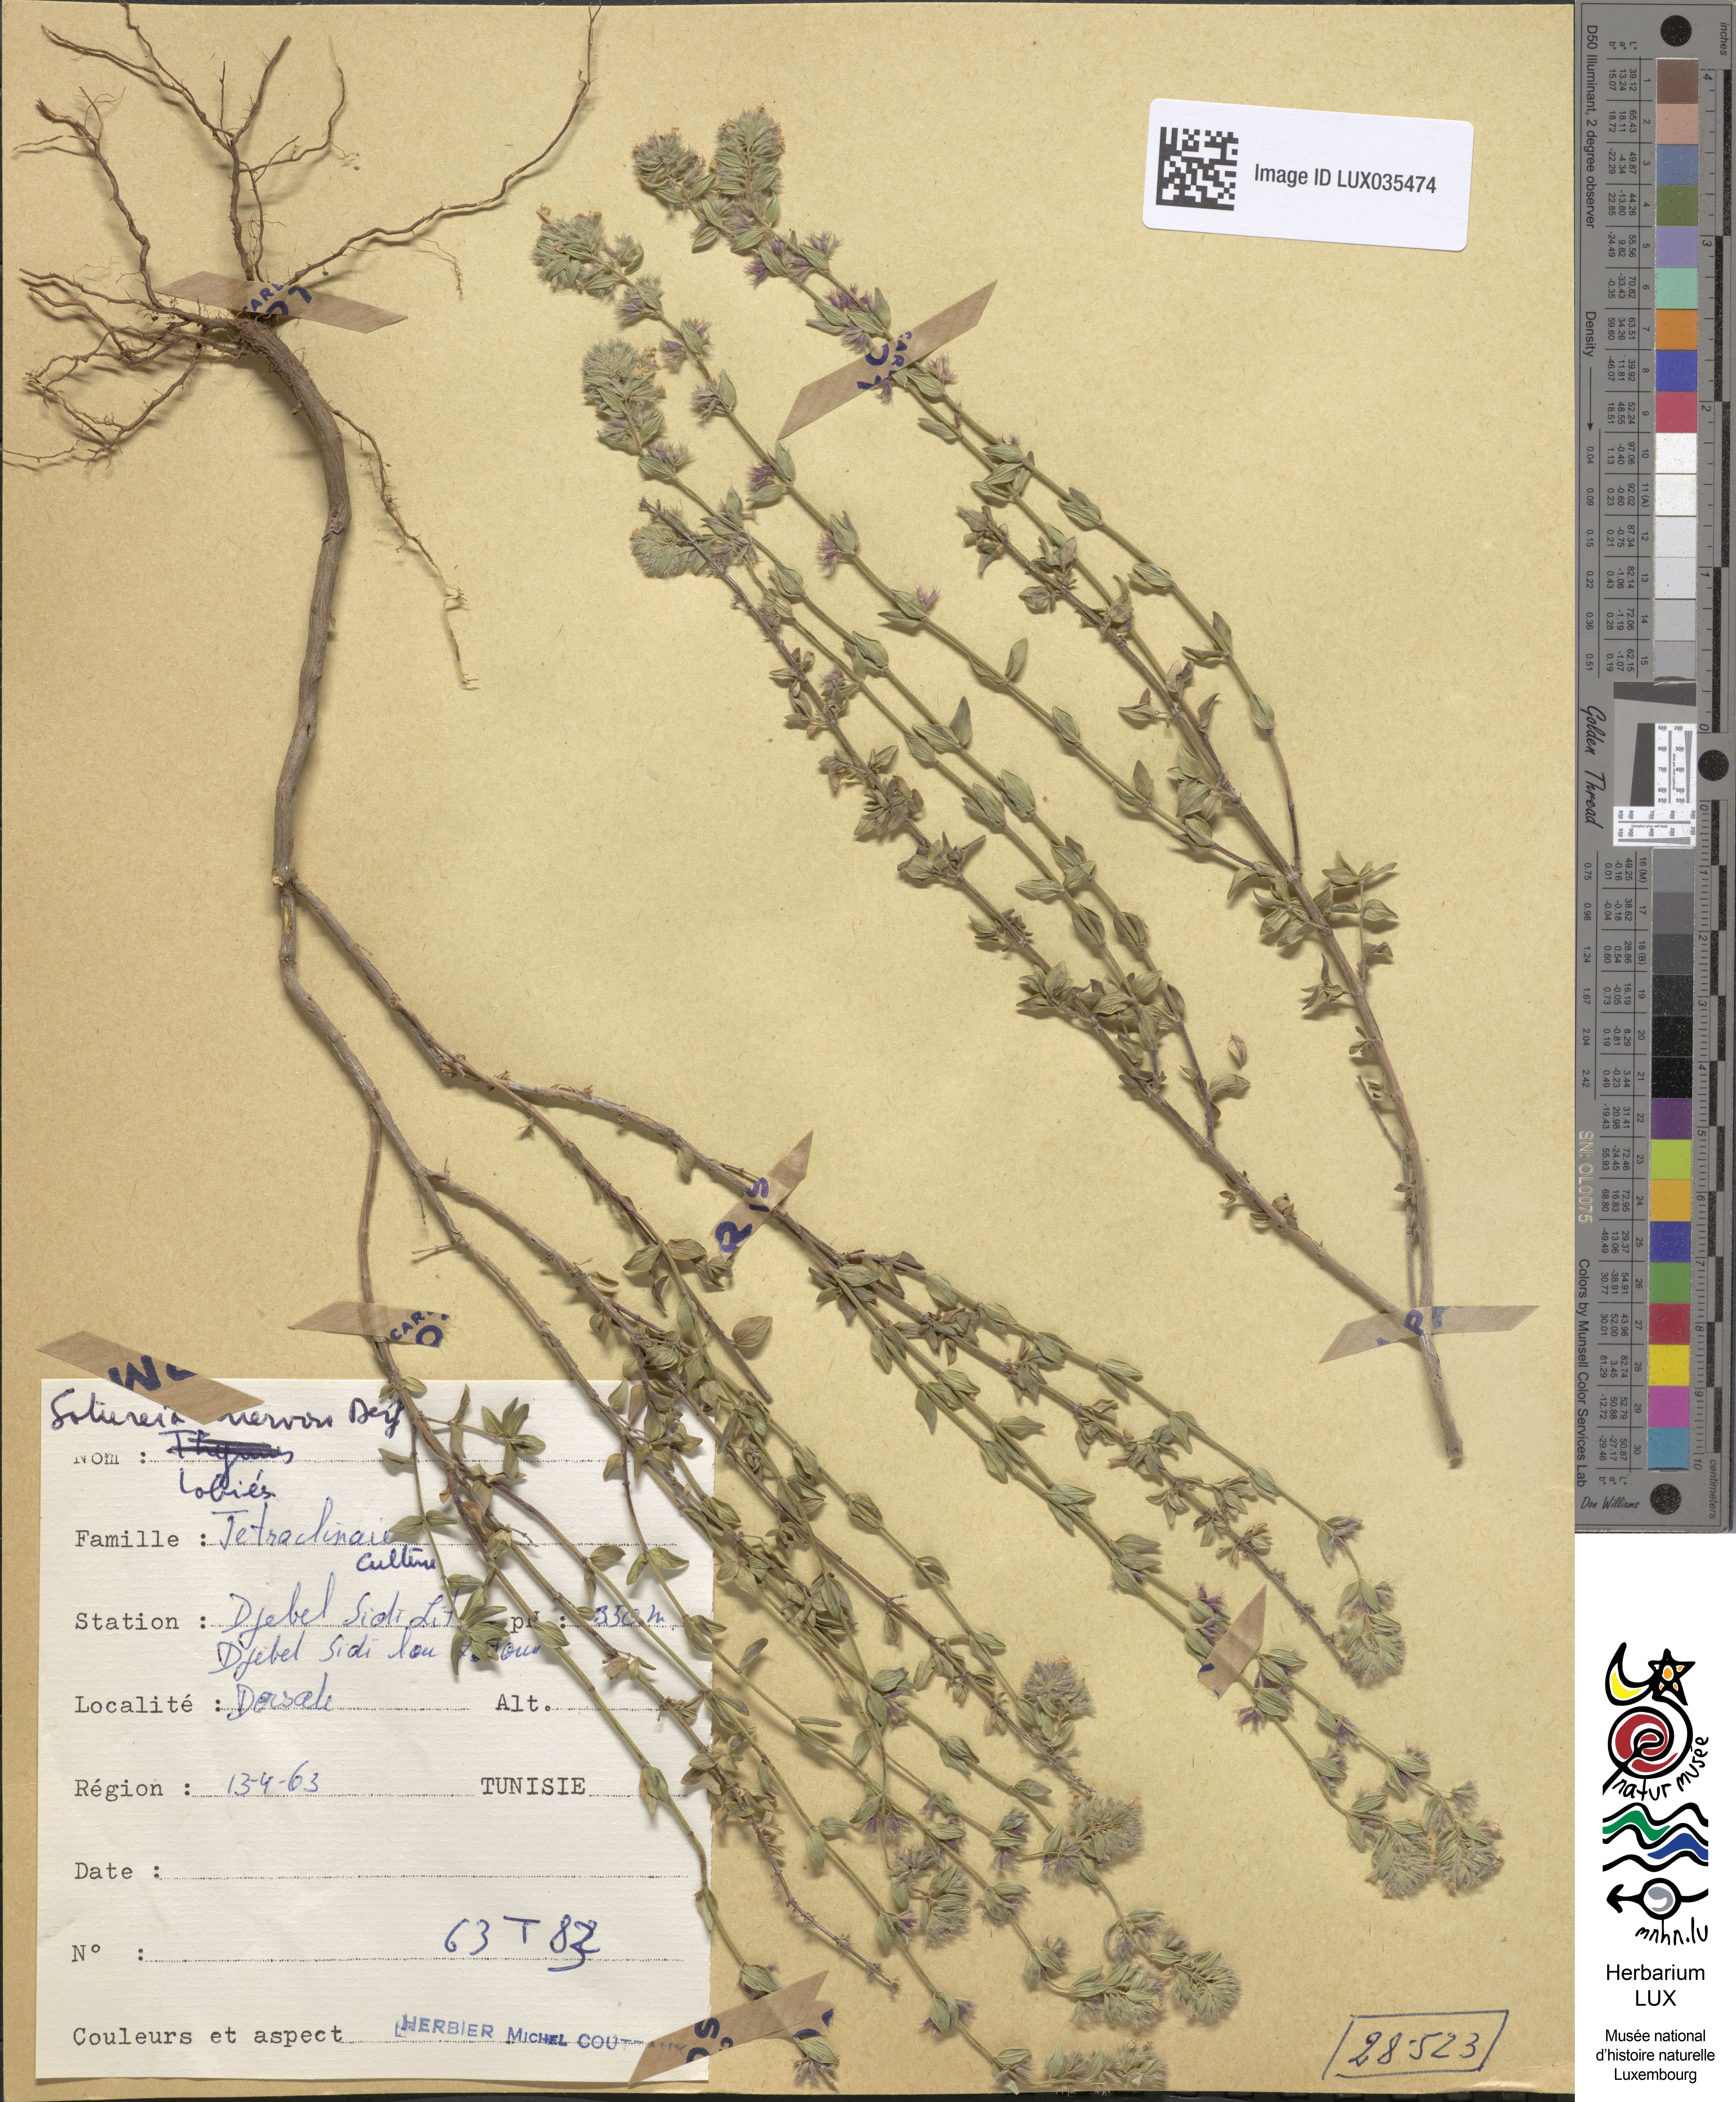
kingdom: Plantae
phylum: Tracheophyta
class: Magnoliopsida
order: Lamiales
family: Lamiaceae
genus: Micromeria
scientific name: Micromeria nervosa
